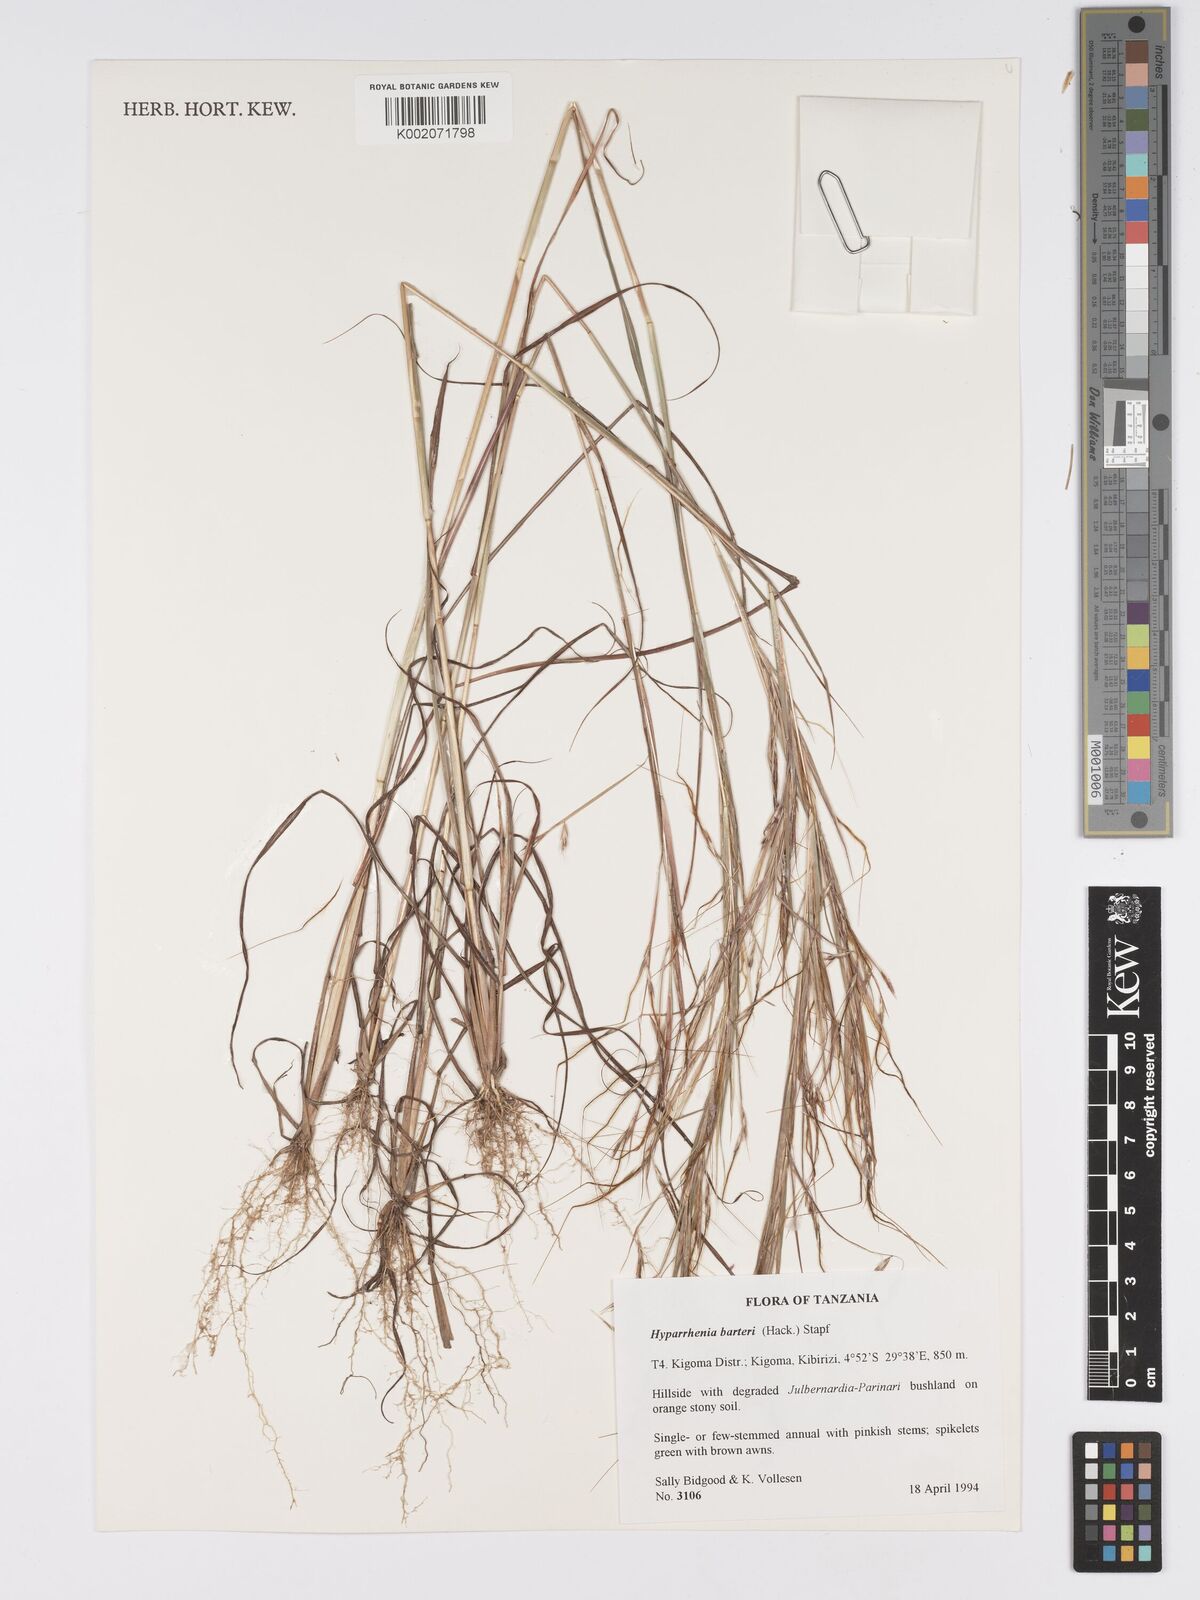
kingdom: Plantae
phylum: Tracheophyta
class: Liliopsida
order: Poales
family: Poaceae
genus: Hyparrhenia
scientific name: Hyparrhenia barteri
